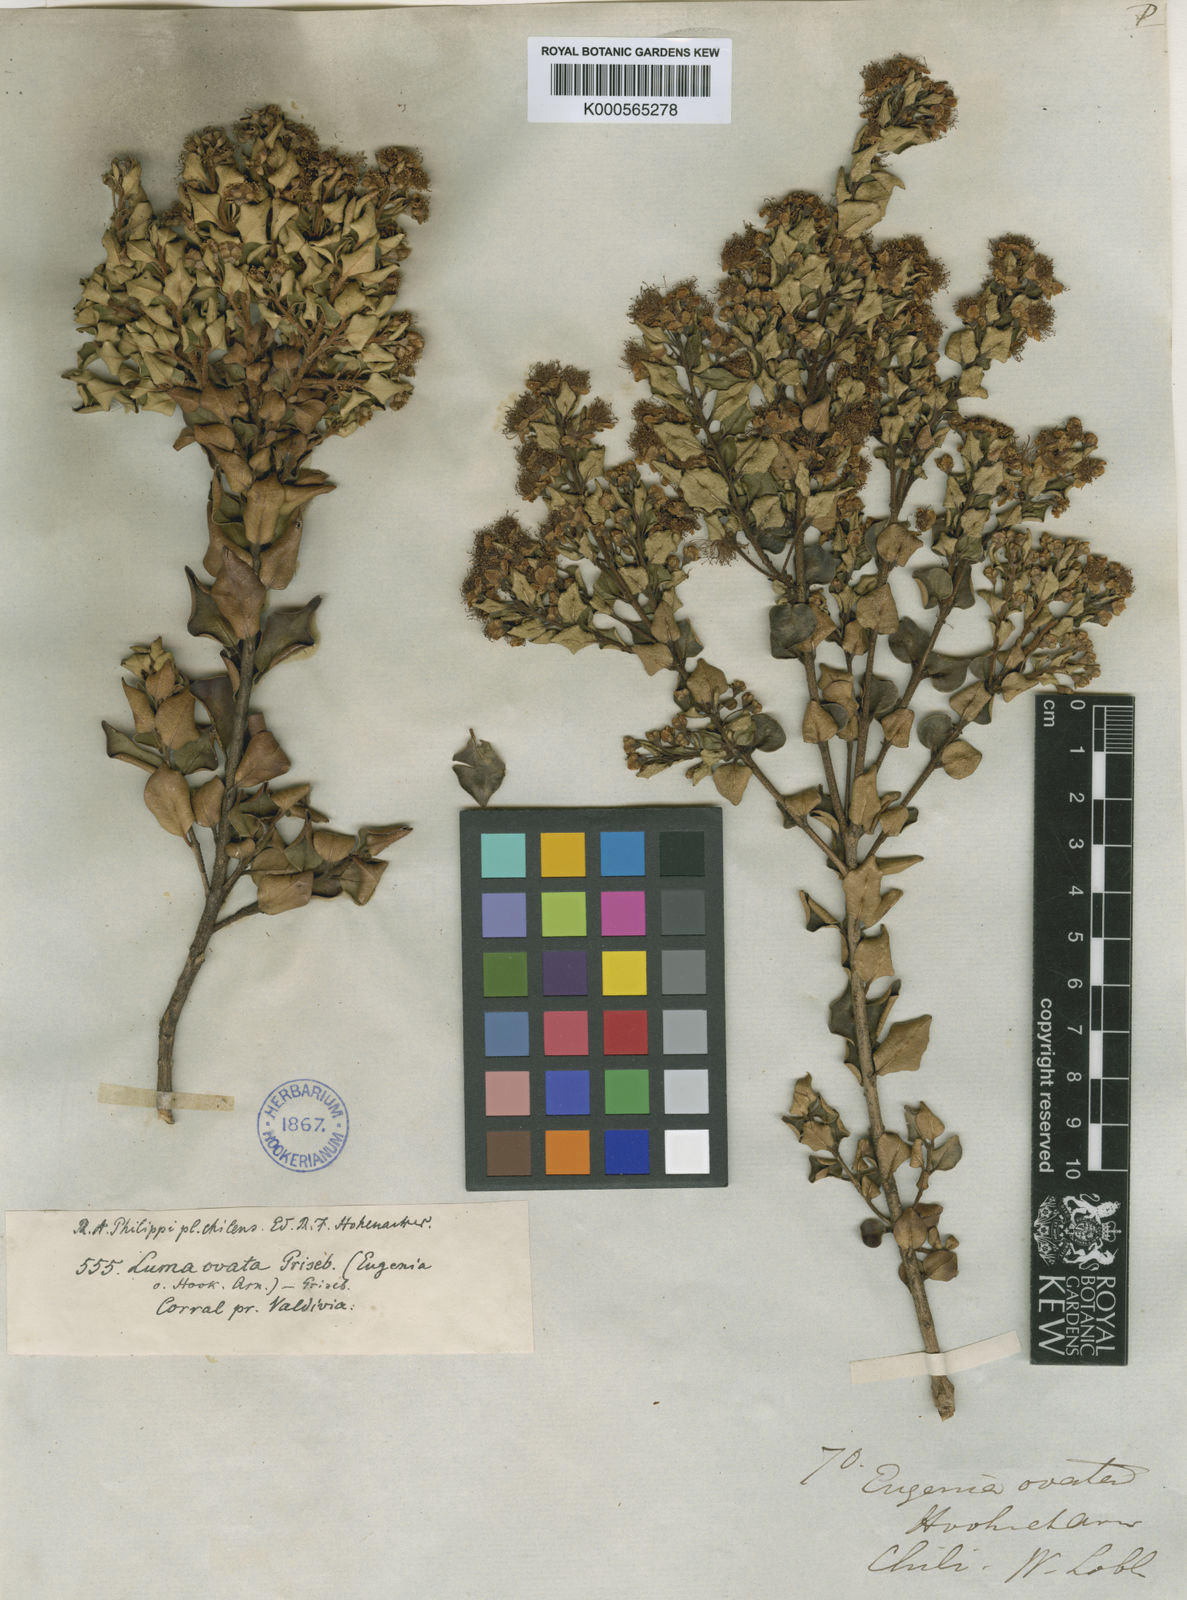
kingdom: Plantae
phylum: Tracheophyta
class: Magnoliopsida
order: Myrtales
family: Myrtaceae
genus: Myrceugenia
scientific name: Myrceugenia ovata
